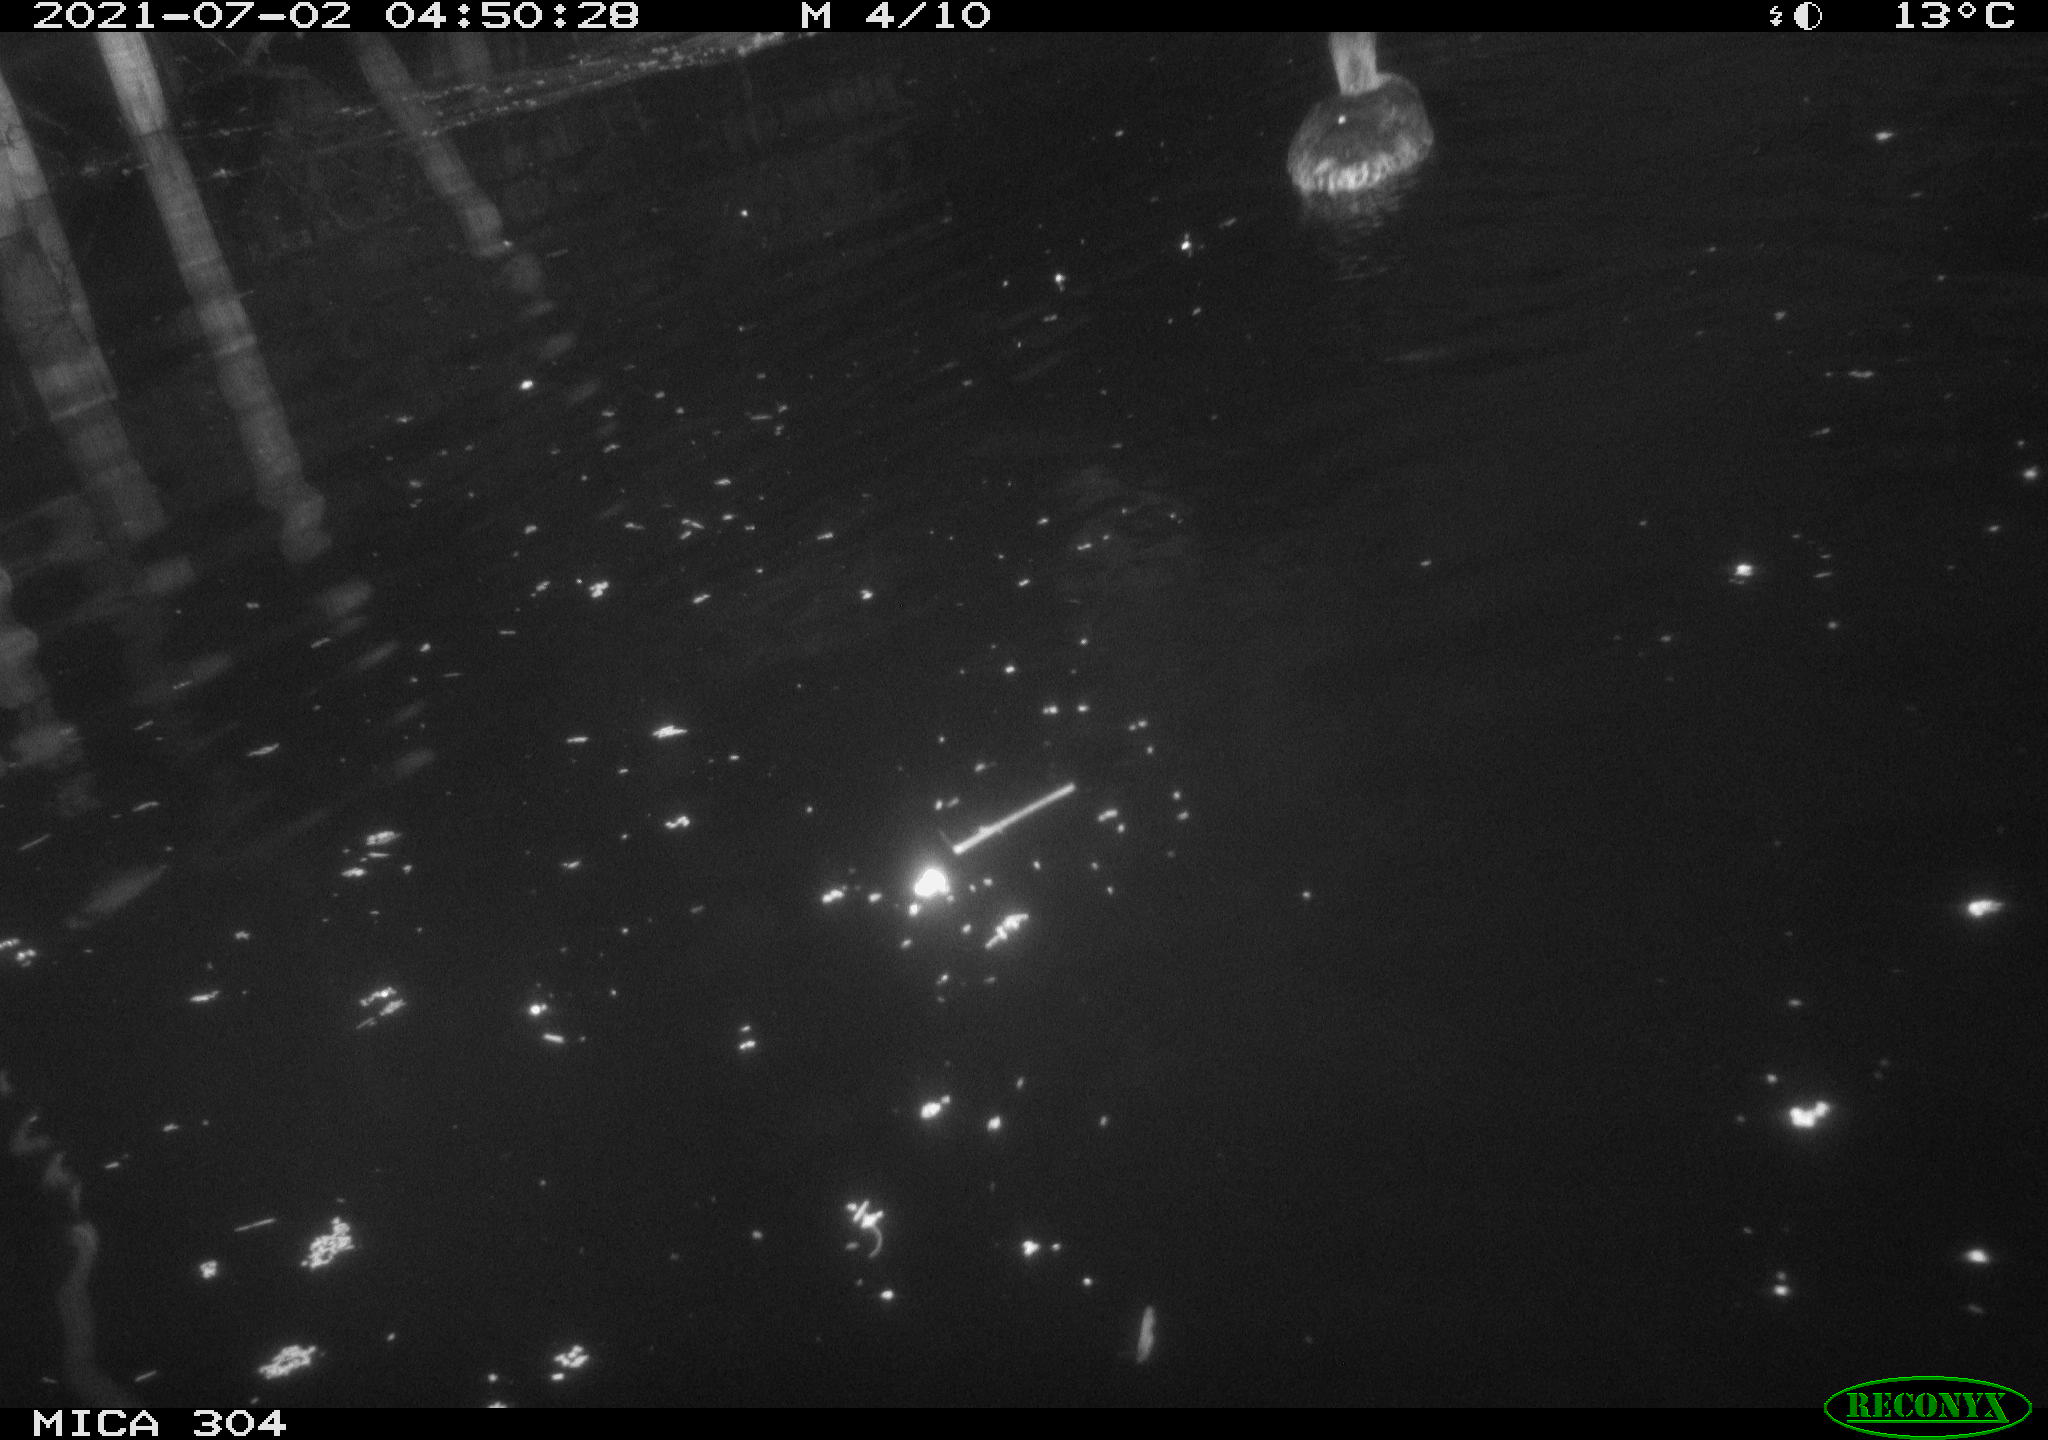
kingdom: Animalia
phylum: Chordata
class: Aves
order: Gruiformes
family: Rallidae
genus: Fulica
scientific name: Fulica atra
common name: Eurasian coot
